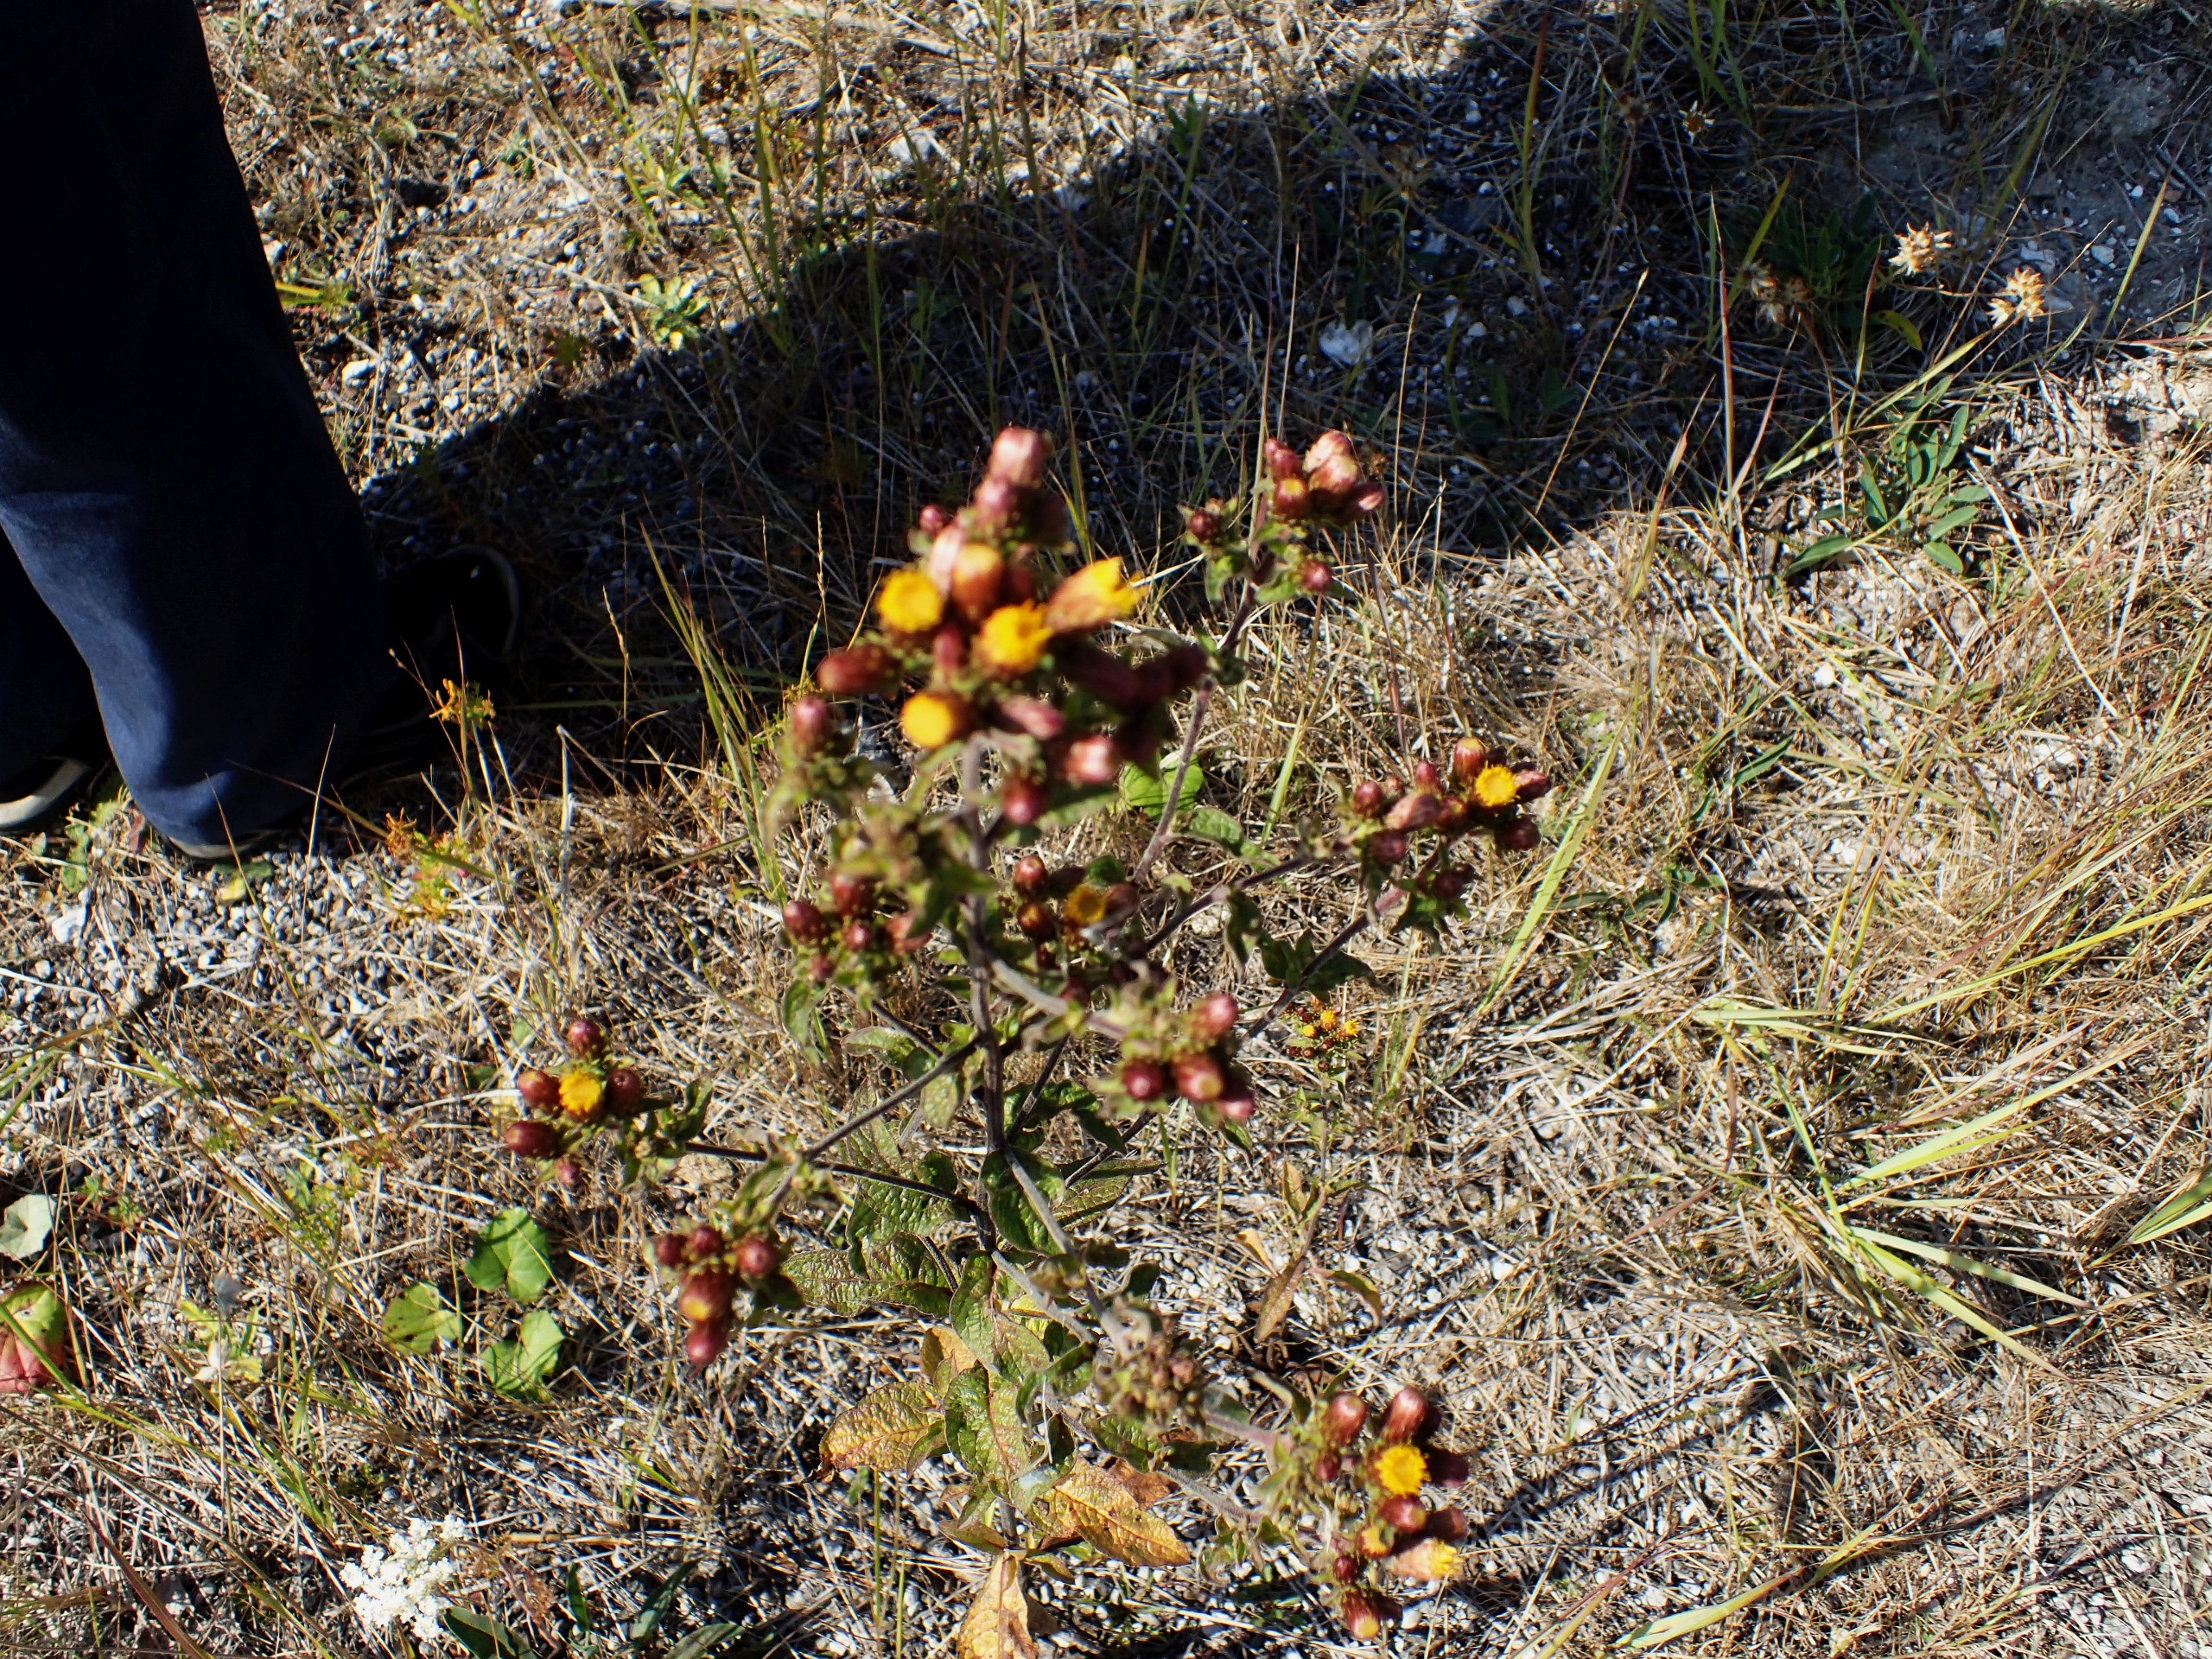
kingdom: Plantae
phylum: Tracheophyta
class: Magnoliopsida
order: Asterales
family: Asteraceae
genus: Pentanema
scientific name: Pentanema squarrosum
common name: Trekløft-alant
